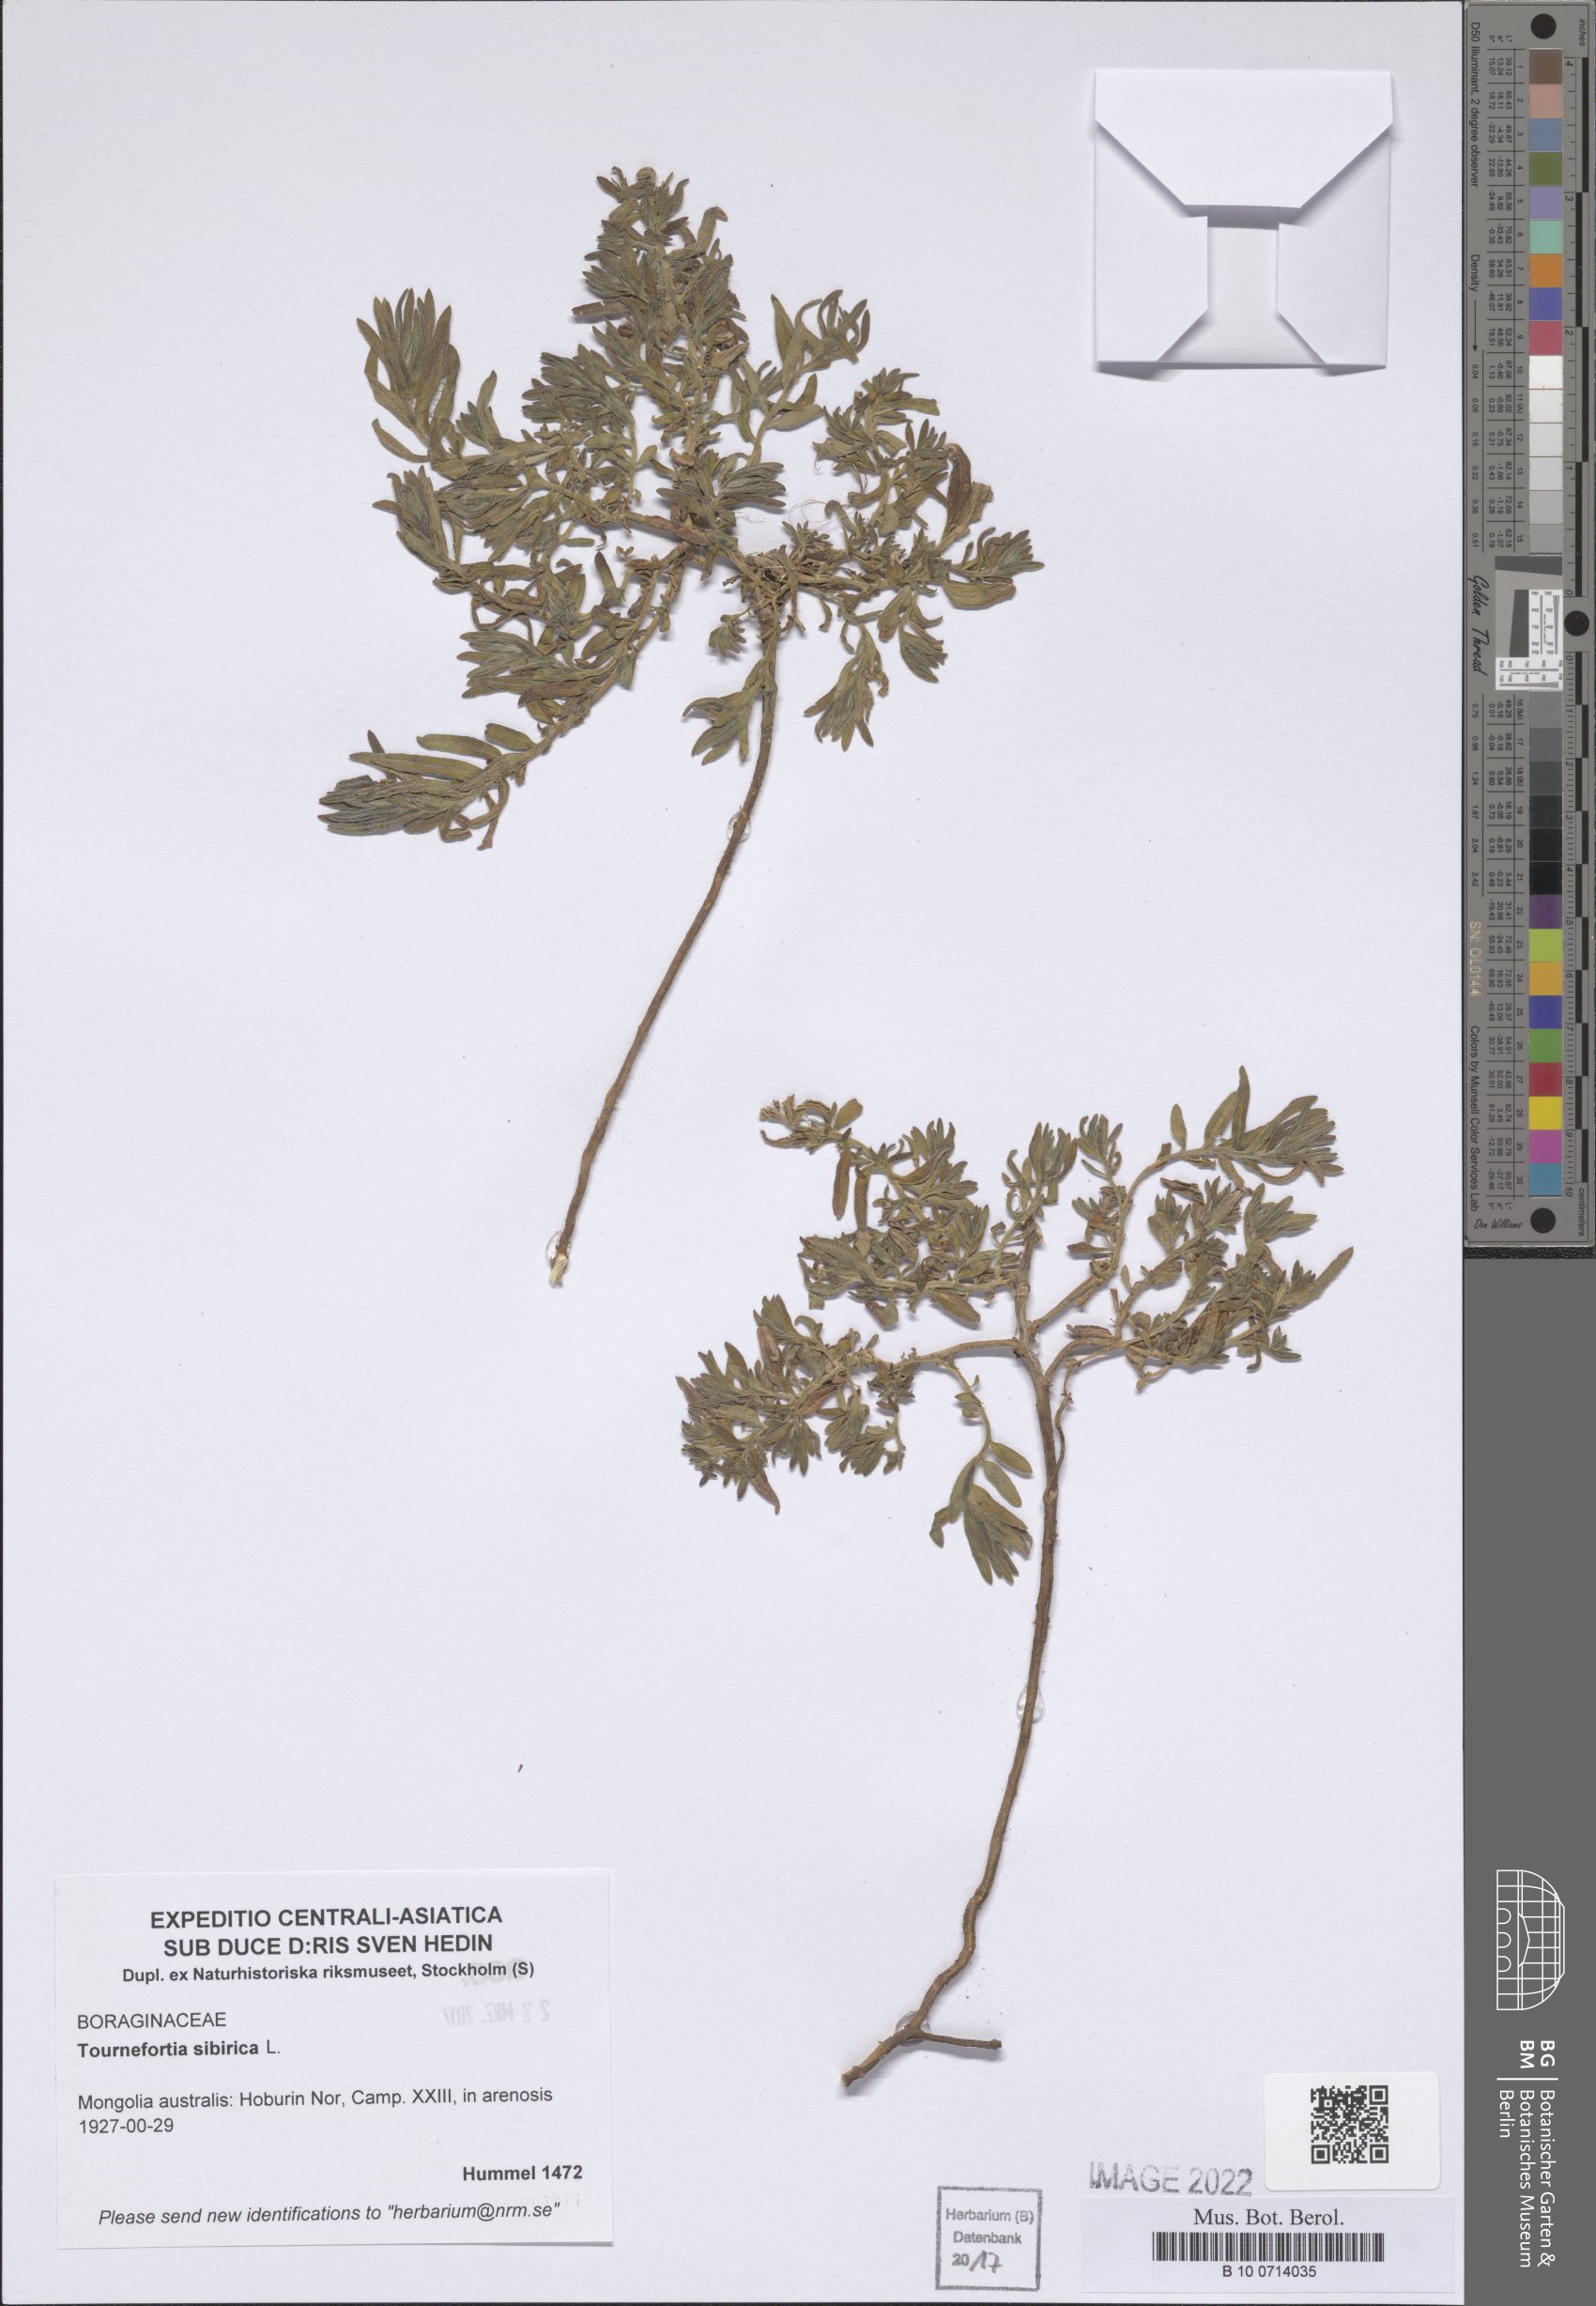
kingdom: Plantae
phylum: Tracheophyta
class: Magnoliopsida
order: Boraginales
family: Heliotropiaceae
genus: Tournefortia
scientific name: Tournefortia sibirica
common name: Siberian sea rosemary
